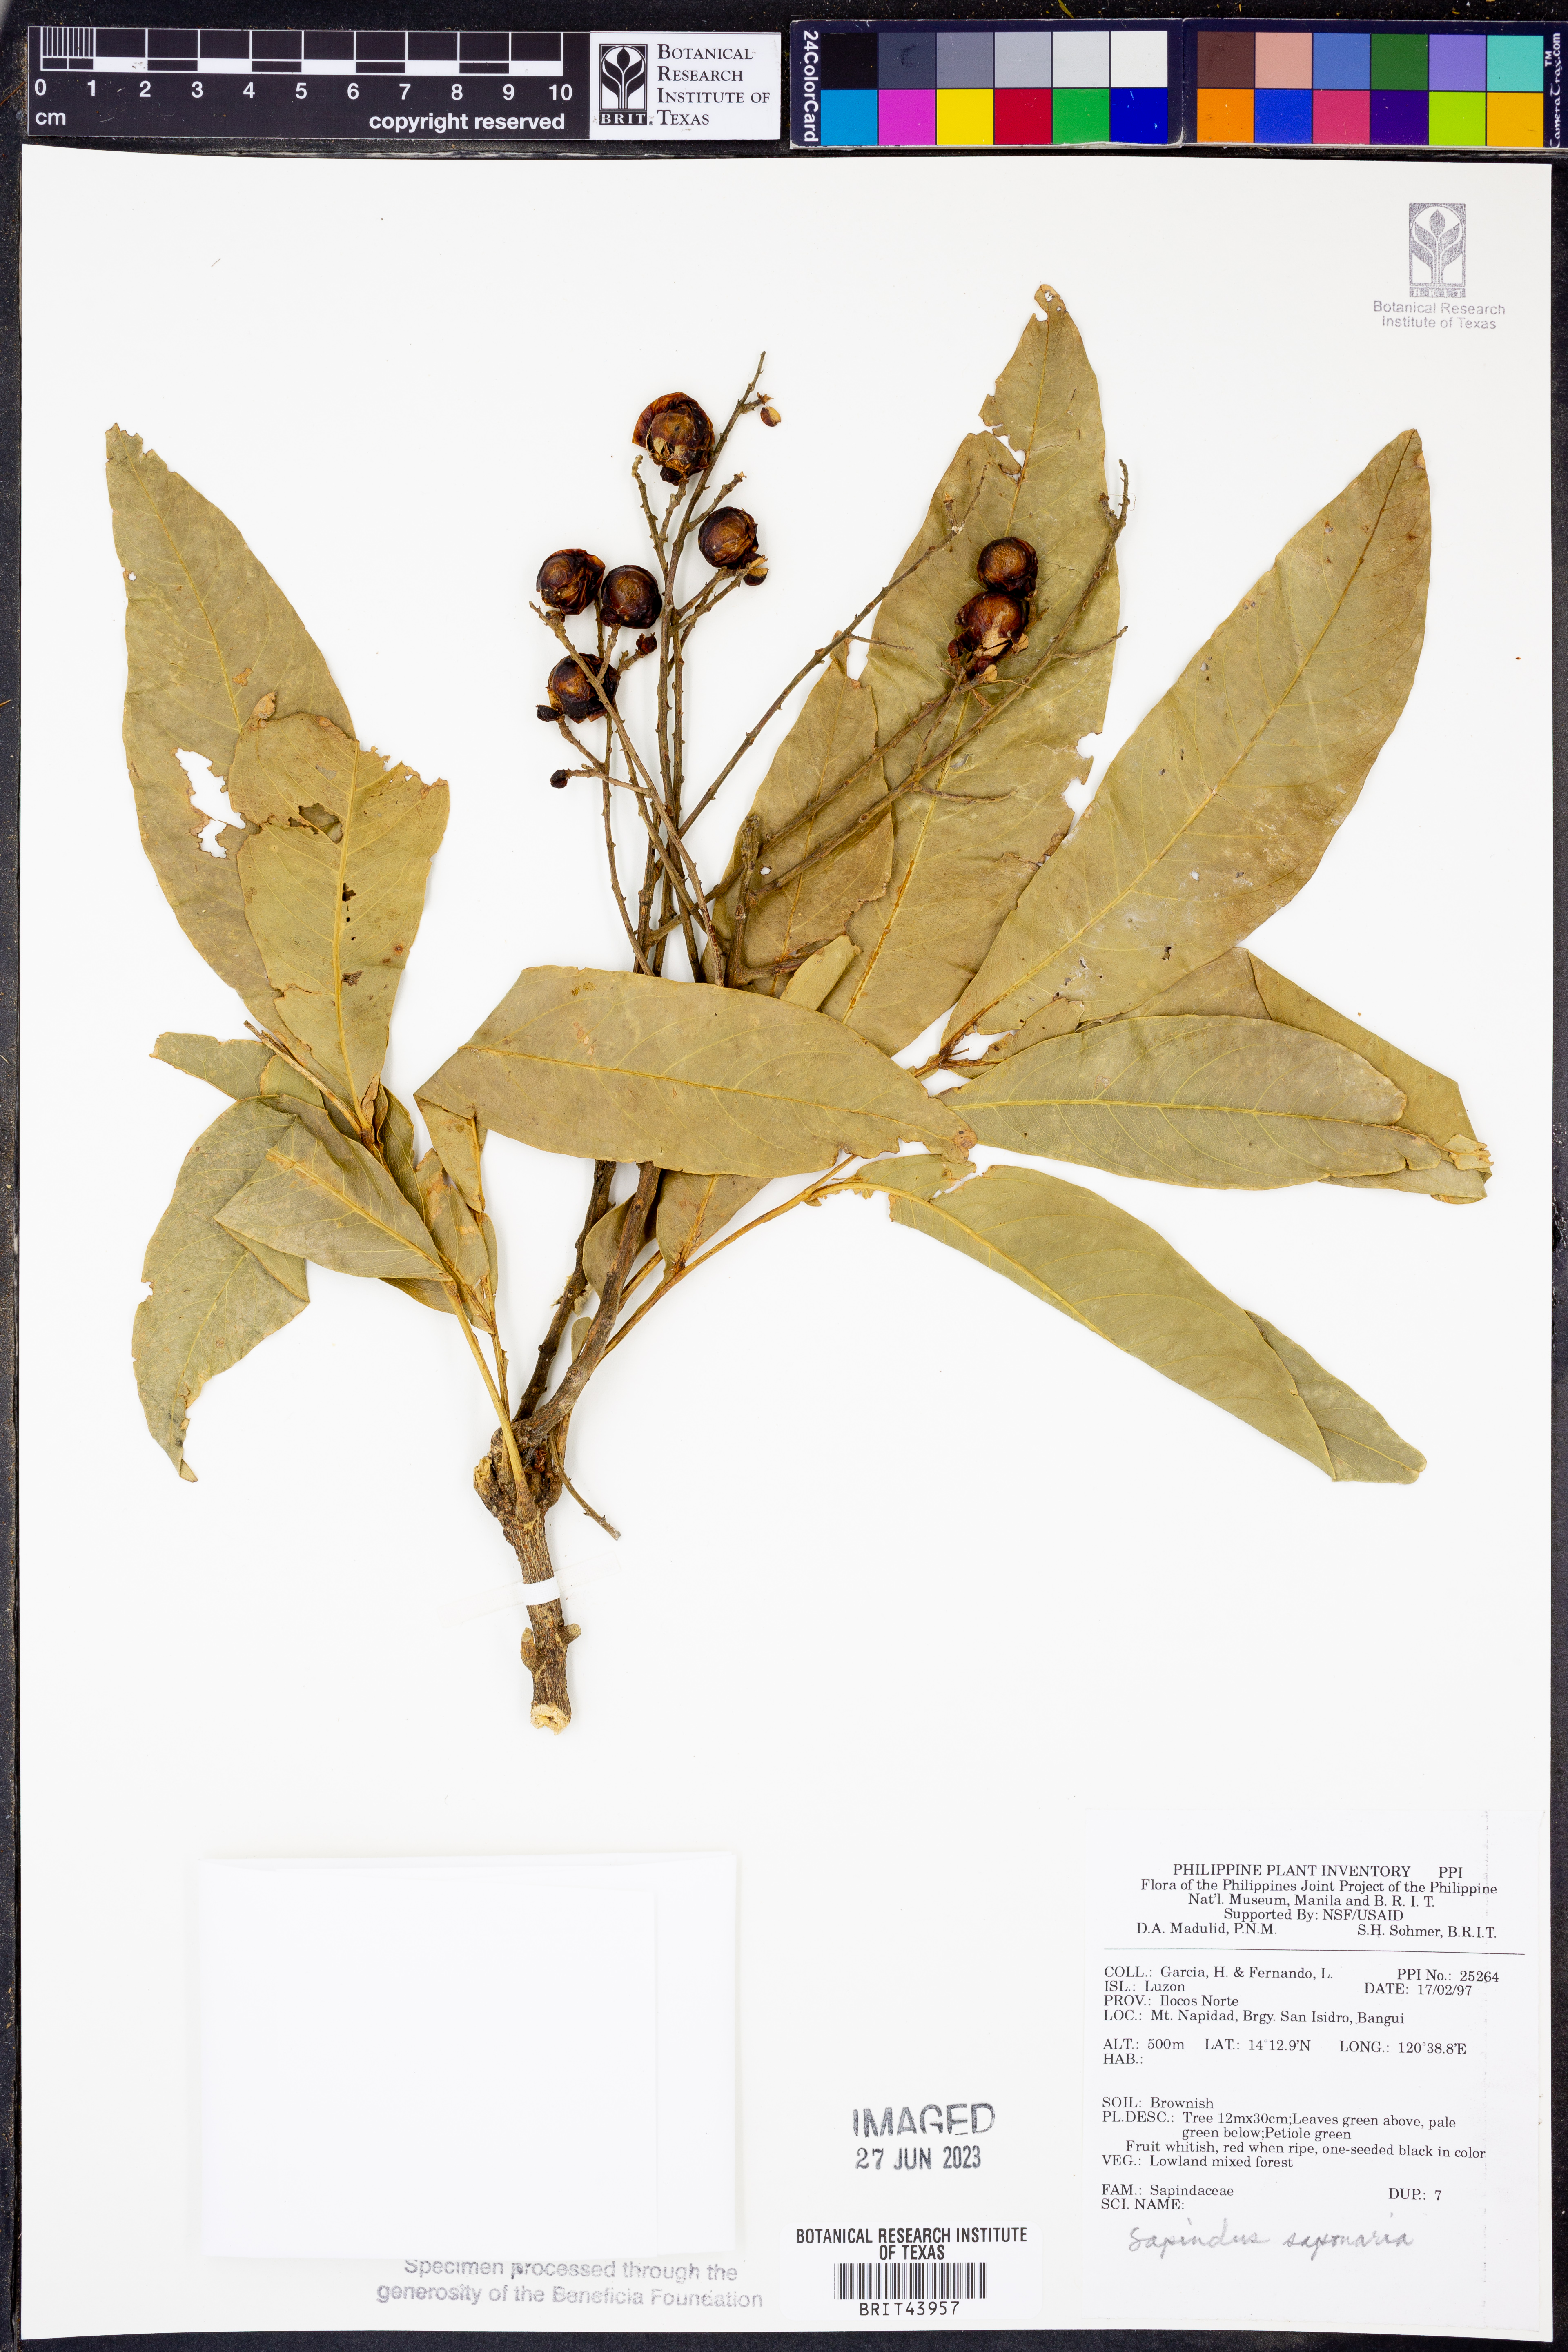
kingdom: Plantae
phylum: Tracheophyta
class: Magnoliopsida
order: Sapindales
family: Sapindaceae
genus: Sapindus
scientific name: Sapindus saponaria
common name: Wingleaf soapberry
